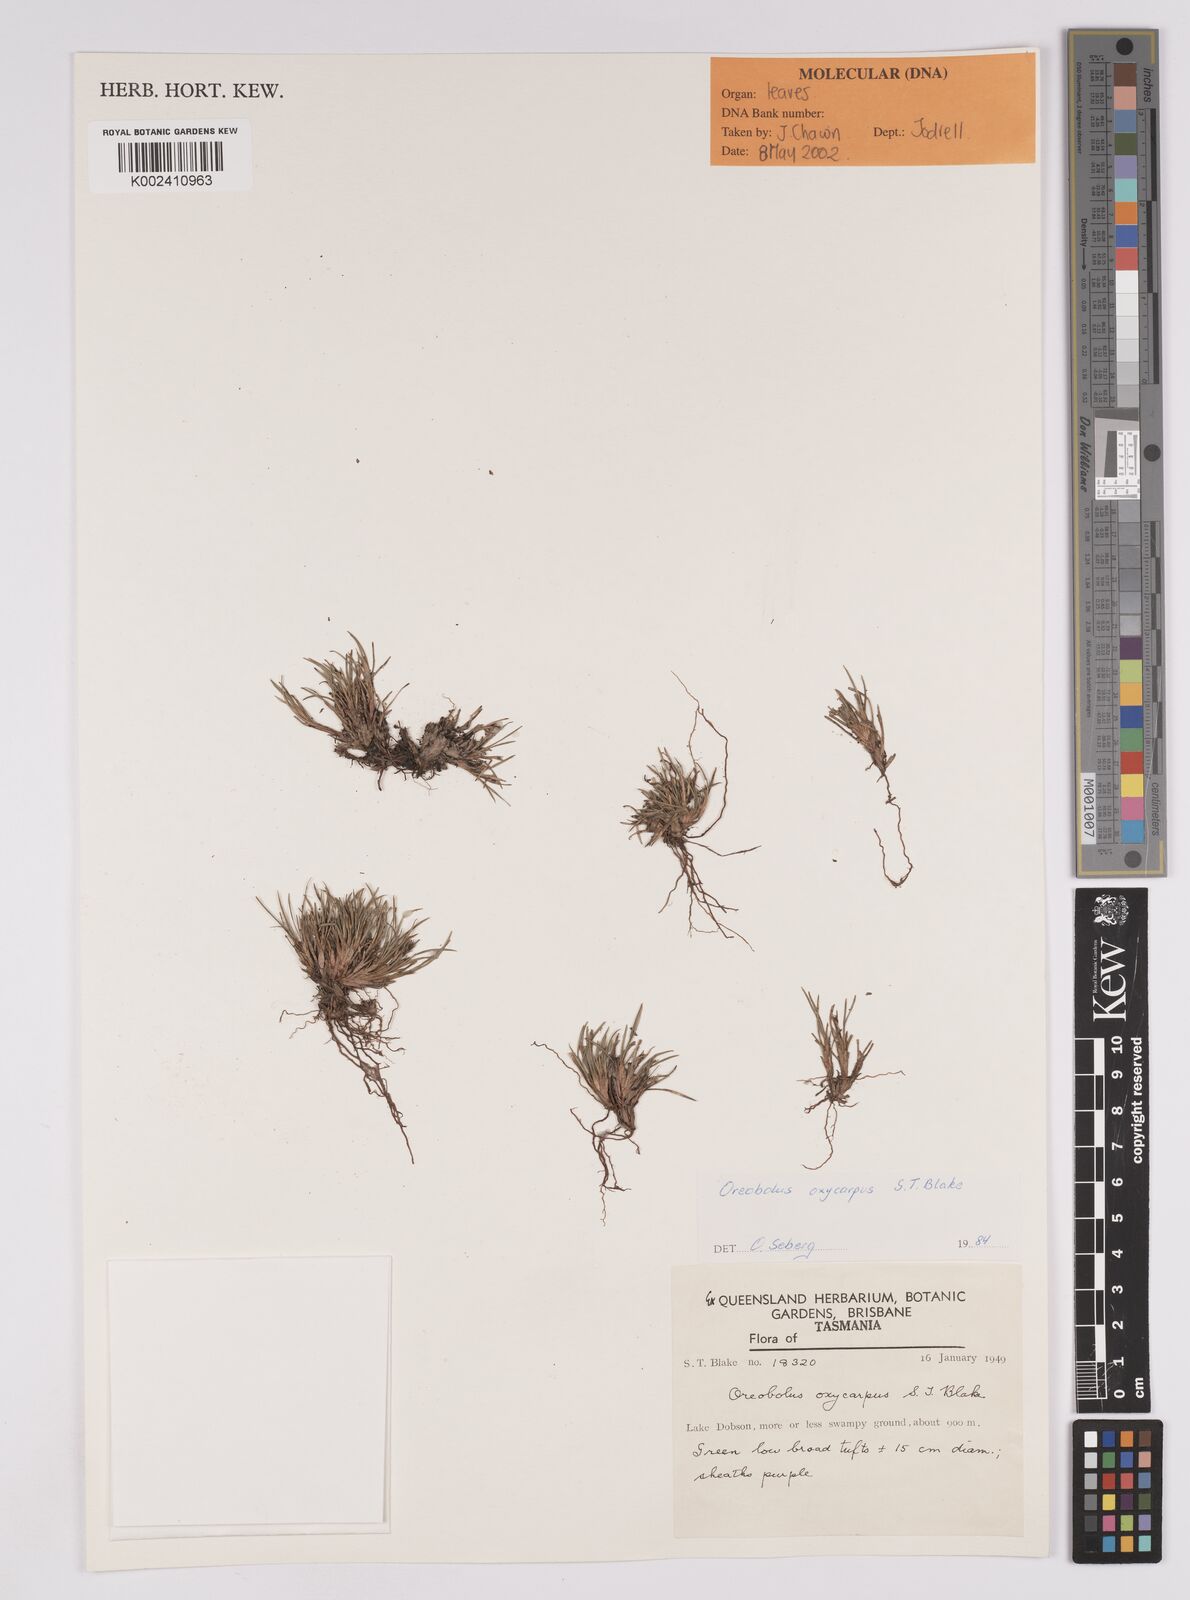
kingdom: Plantae
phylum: Tracheophyta
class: Liliopsida
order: Poales
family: Cyperaceae
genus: Oreobolus
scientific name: Oreobolus oxycarpus
